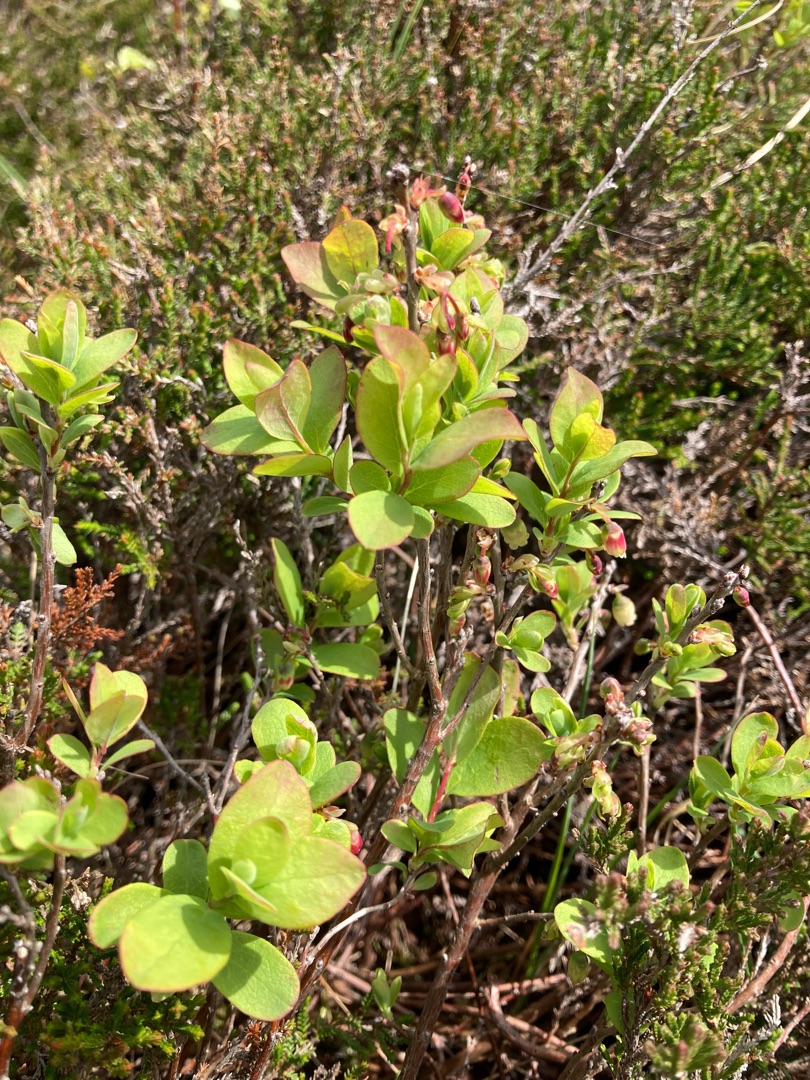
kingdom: Plantae
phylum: Tracheophyta
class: Magnoliopsida
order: Ericales
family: Ericaceae
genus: Vaccinium
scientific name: Vaccinium uliginosum
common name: Mose-bølle
